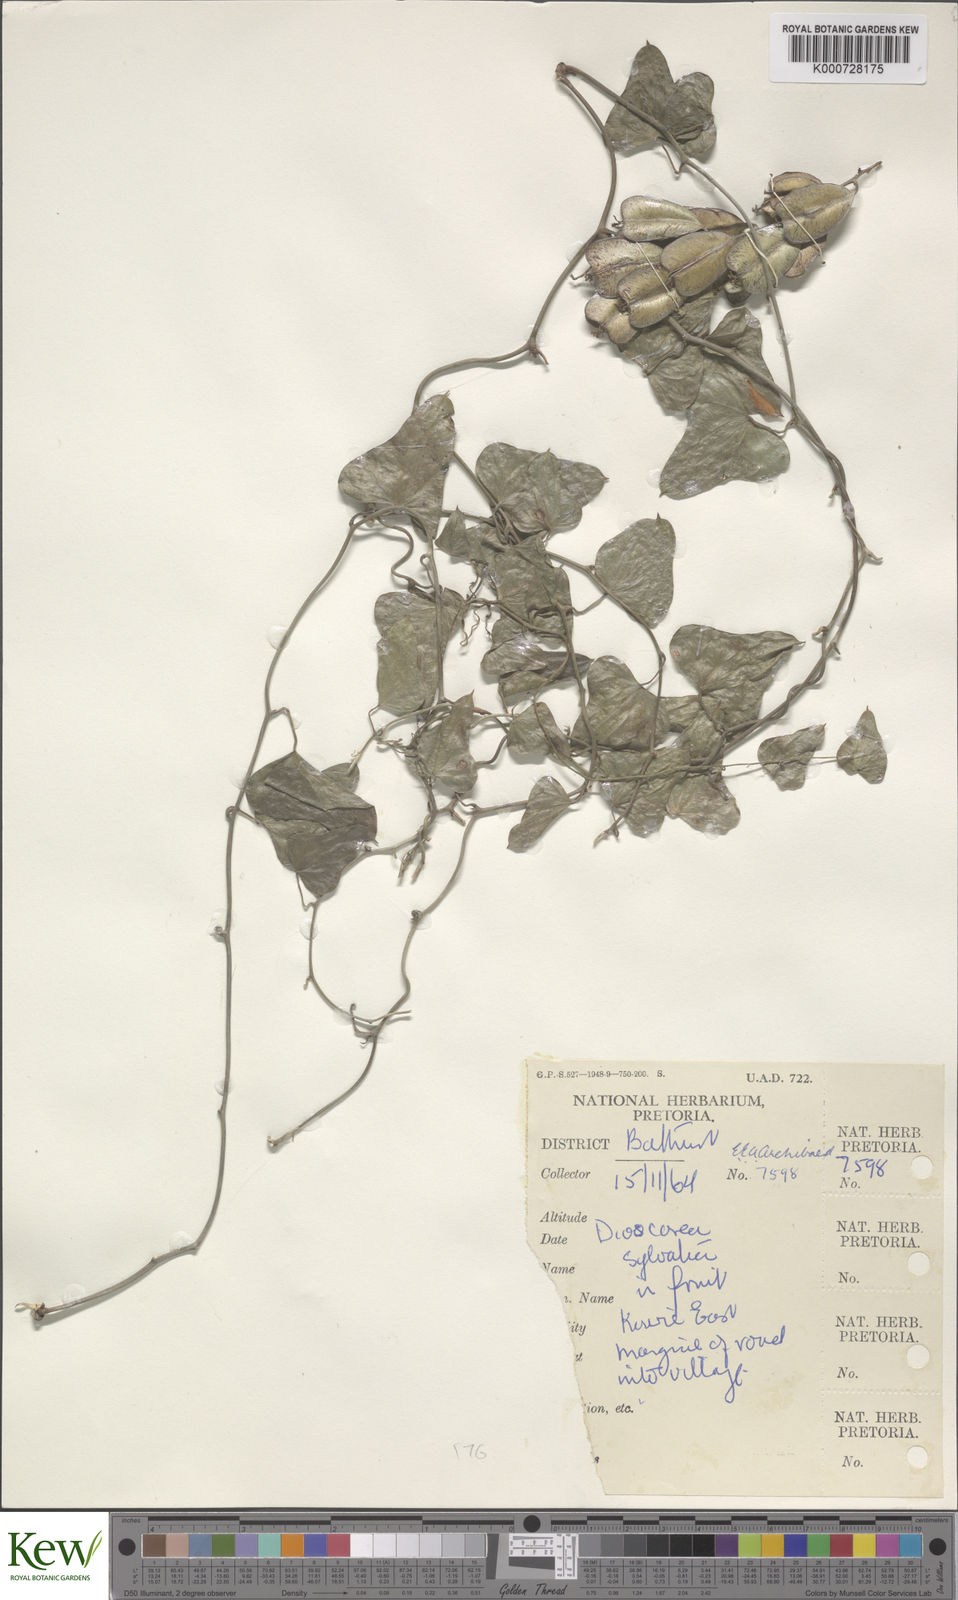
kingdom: Plantae
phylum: Tracheophyta
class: Liliopsida
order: Dioscoreales
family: Dioscoreaceae
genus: Dioscorea
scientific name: Dioscorea sylvatica
